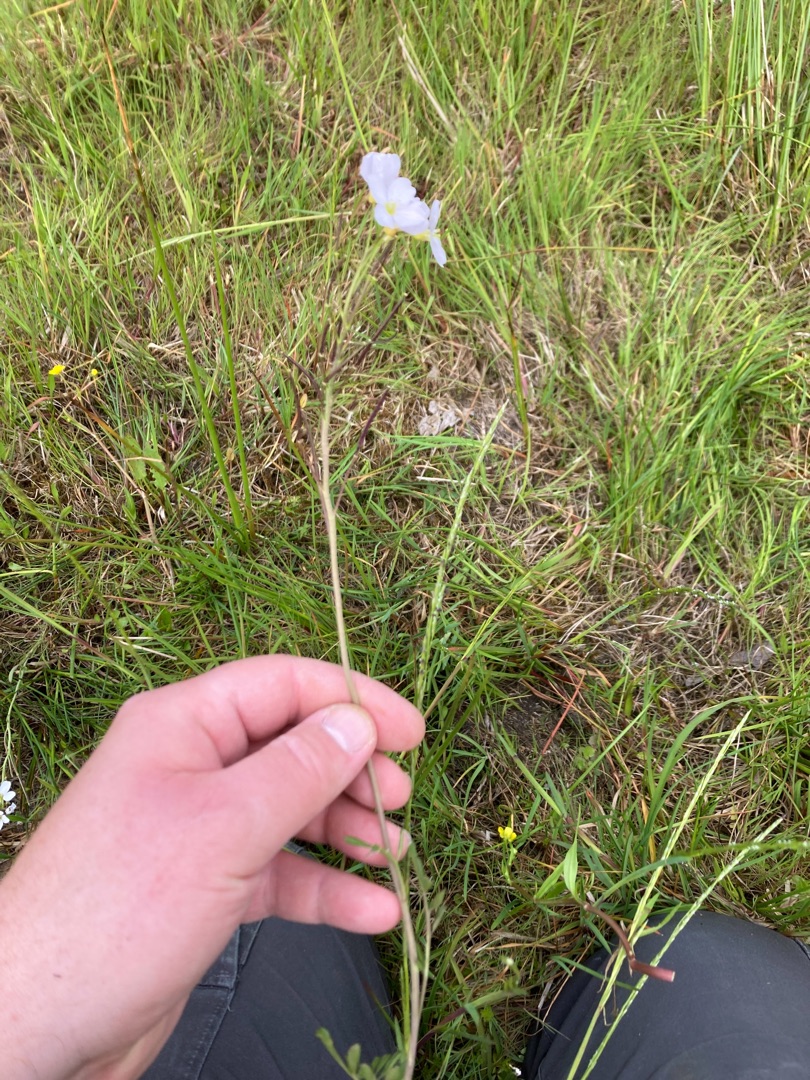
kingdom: Plantae
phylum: Tracheophyta
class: Magnoliopsida
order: Brassicales
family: Brassicaceae
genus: Cardamine
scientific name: Cardamine pratensis
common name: Engkarse
